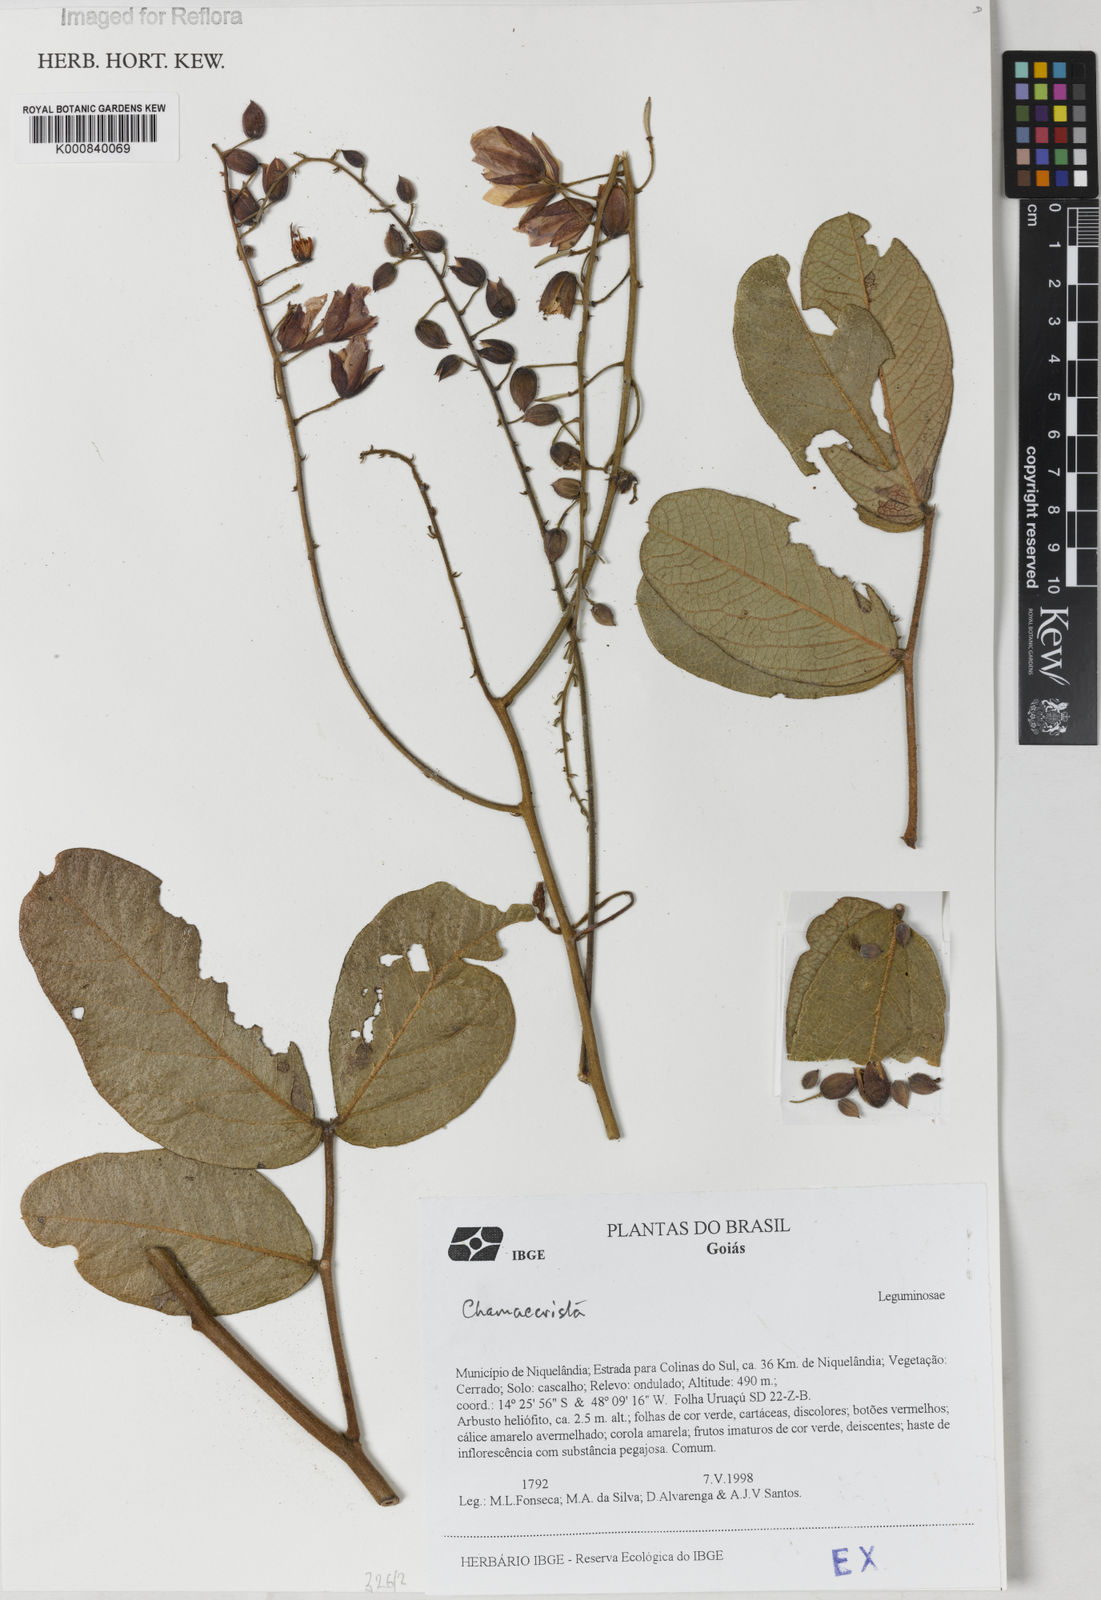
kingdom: Plantae
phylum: Tracheophyta
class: Magnoliopsida
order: Fabales
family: Fabaceae
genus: Chamaecrista
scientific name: Chamaecrista
